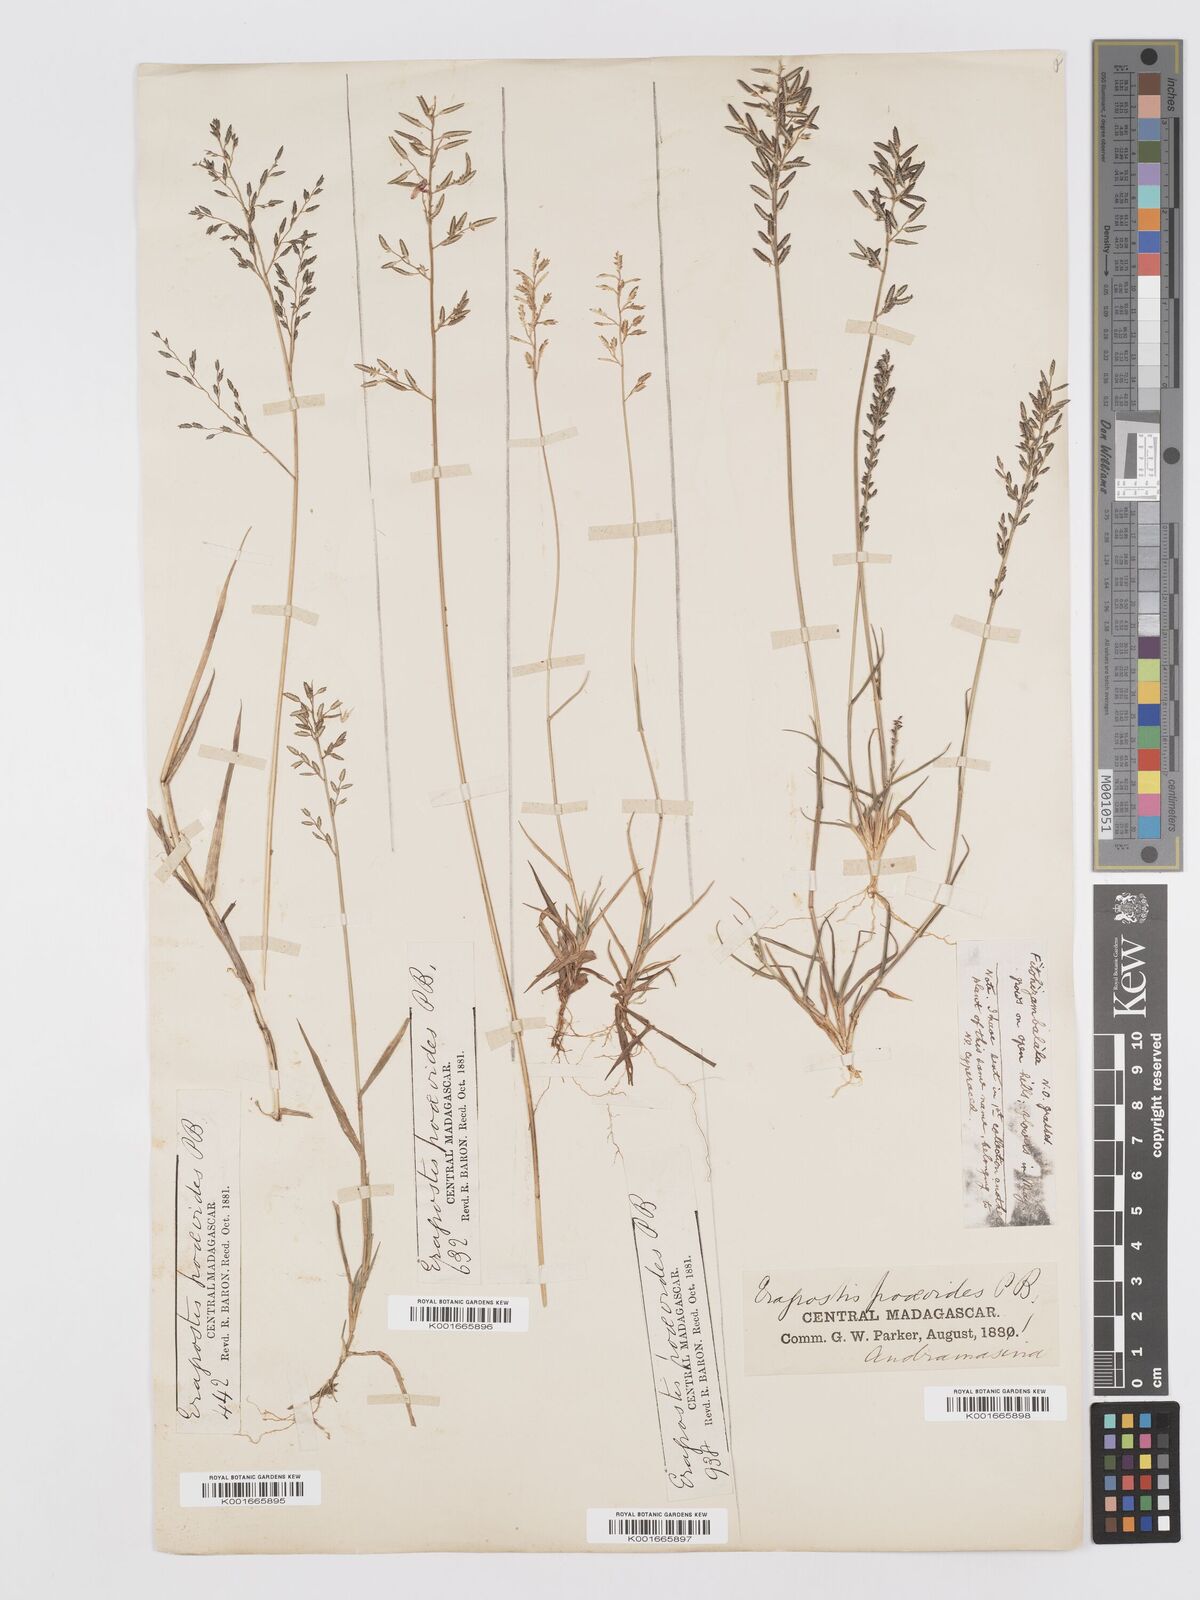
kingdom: Plantae
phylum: Tracheophyta
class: Liliopsida
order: Poales
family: Poaceae
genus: Eragrostis
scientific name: Eragrostis lateritica
